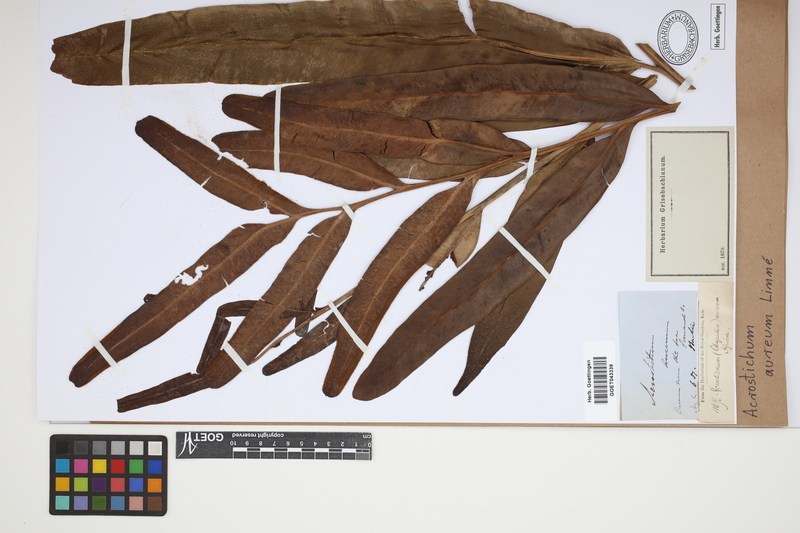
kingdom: Plantae
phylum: Tracheophyta
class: Polypodiopsida
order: Polypodiales
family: Pteridaceae
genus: Acrostichum
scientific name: Acrostichum aureum
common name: Leather fern
